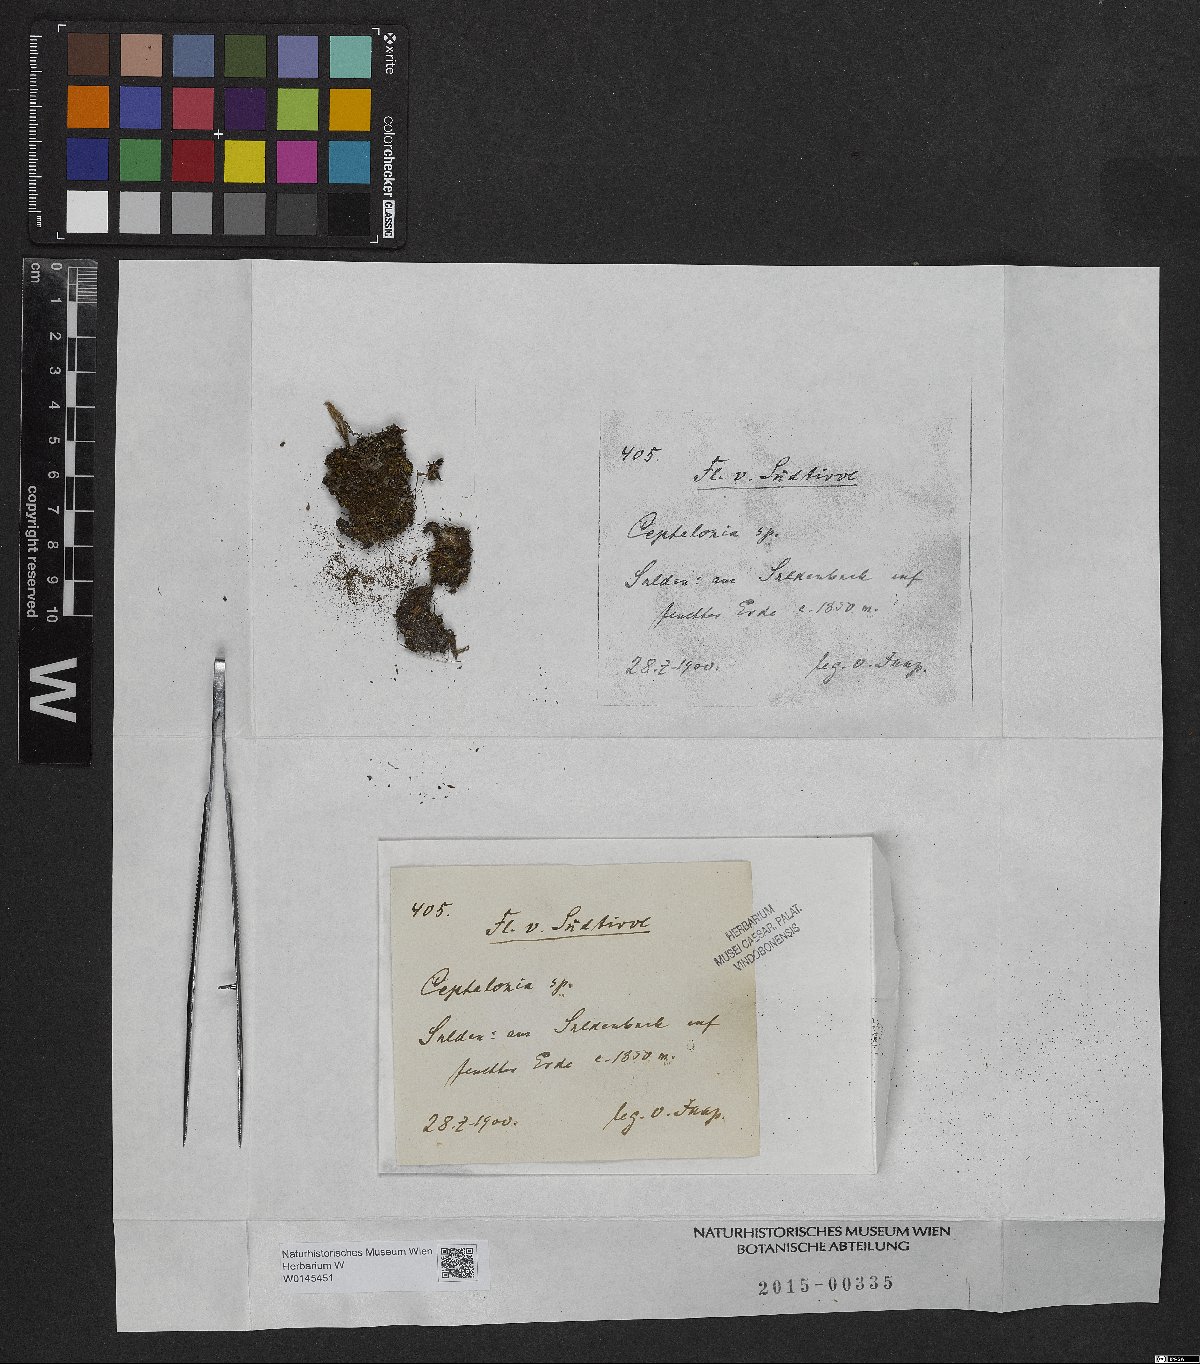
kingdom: Plantae
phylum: Marchantiophyta
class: Jungermanniopsida
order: Jungermanniales
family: Cephaloziaceae
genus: Cephalozia
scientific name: Cephalozia
